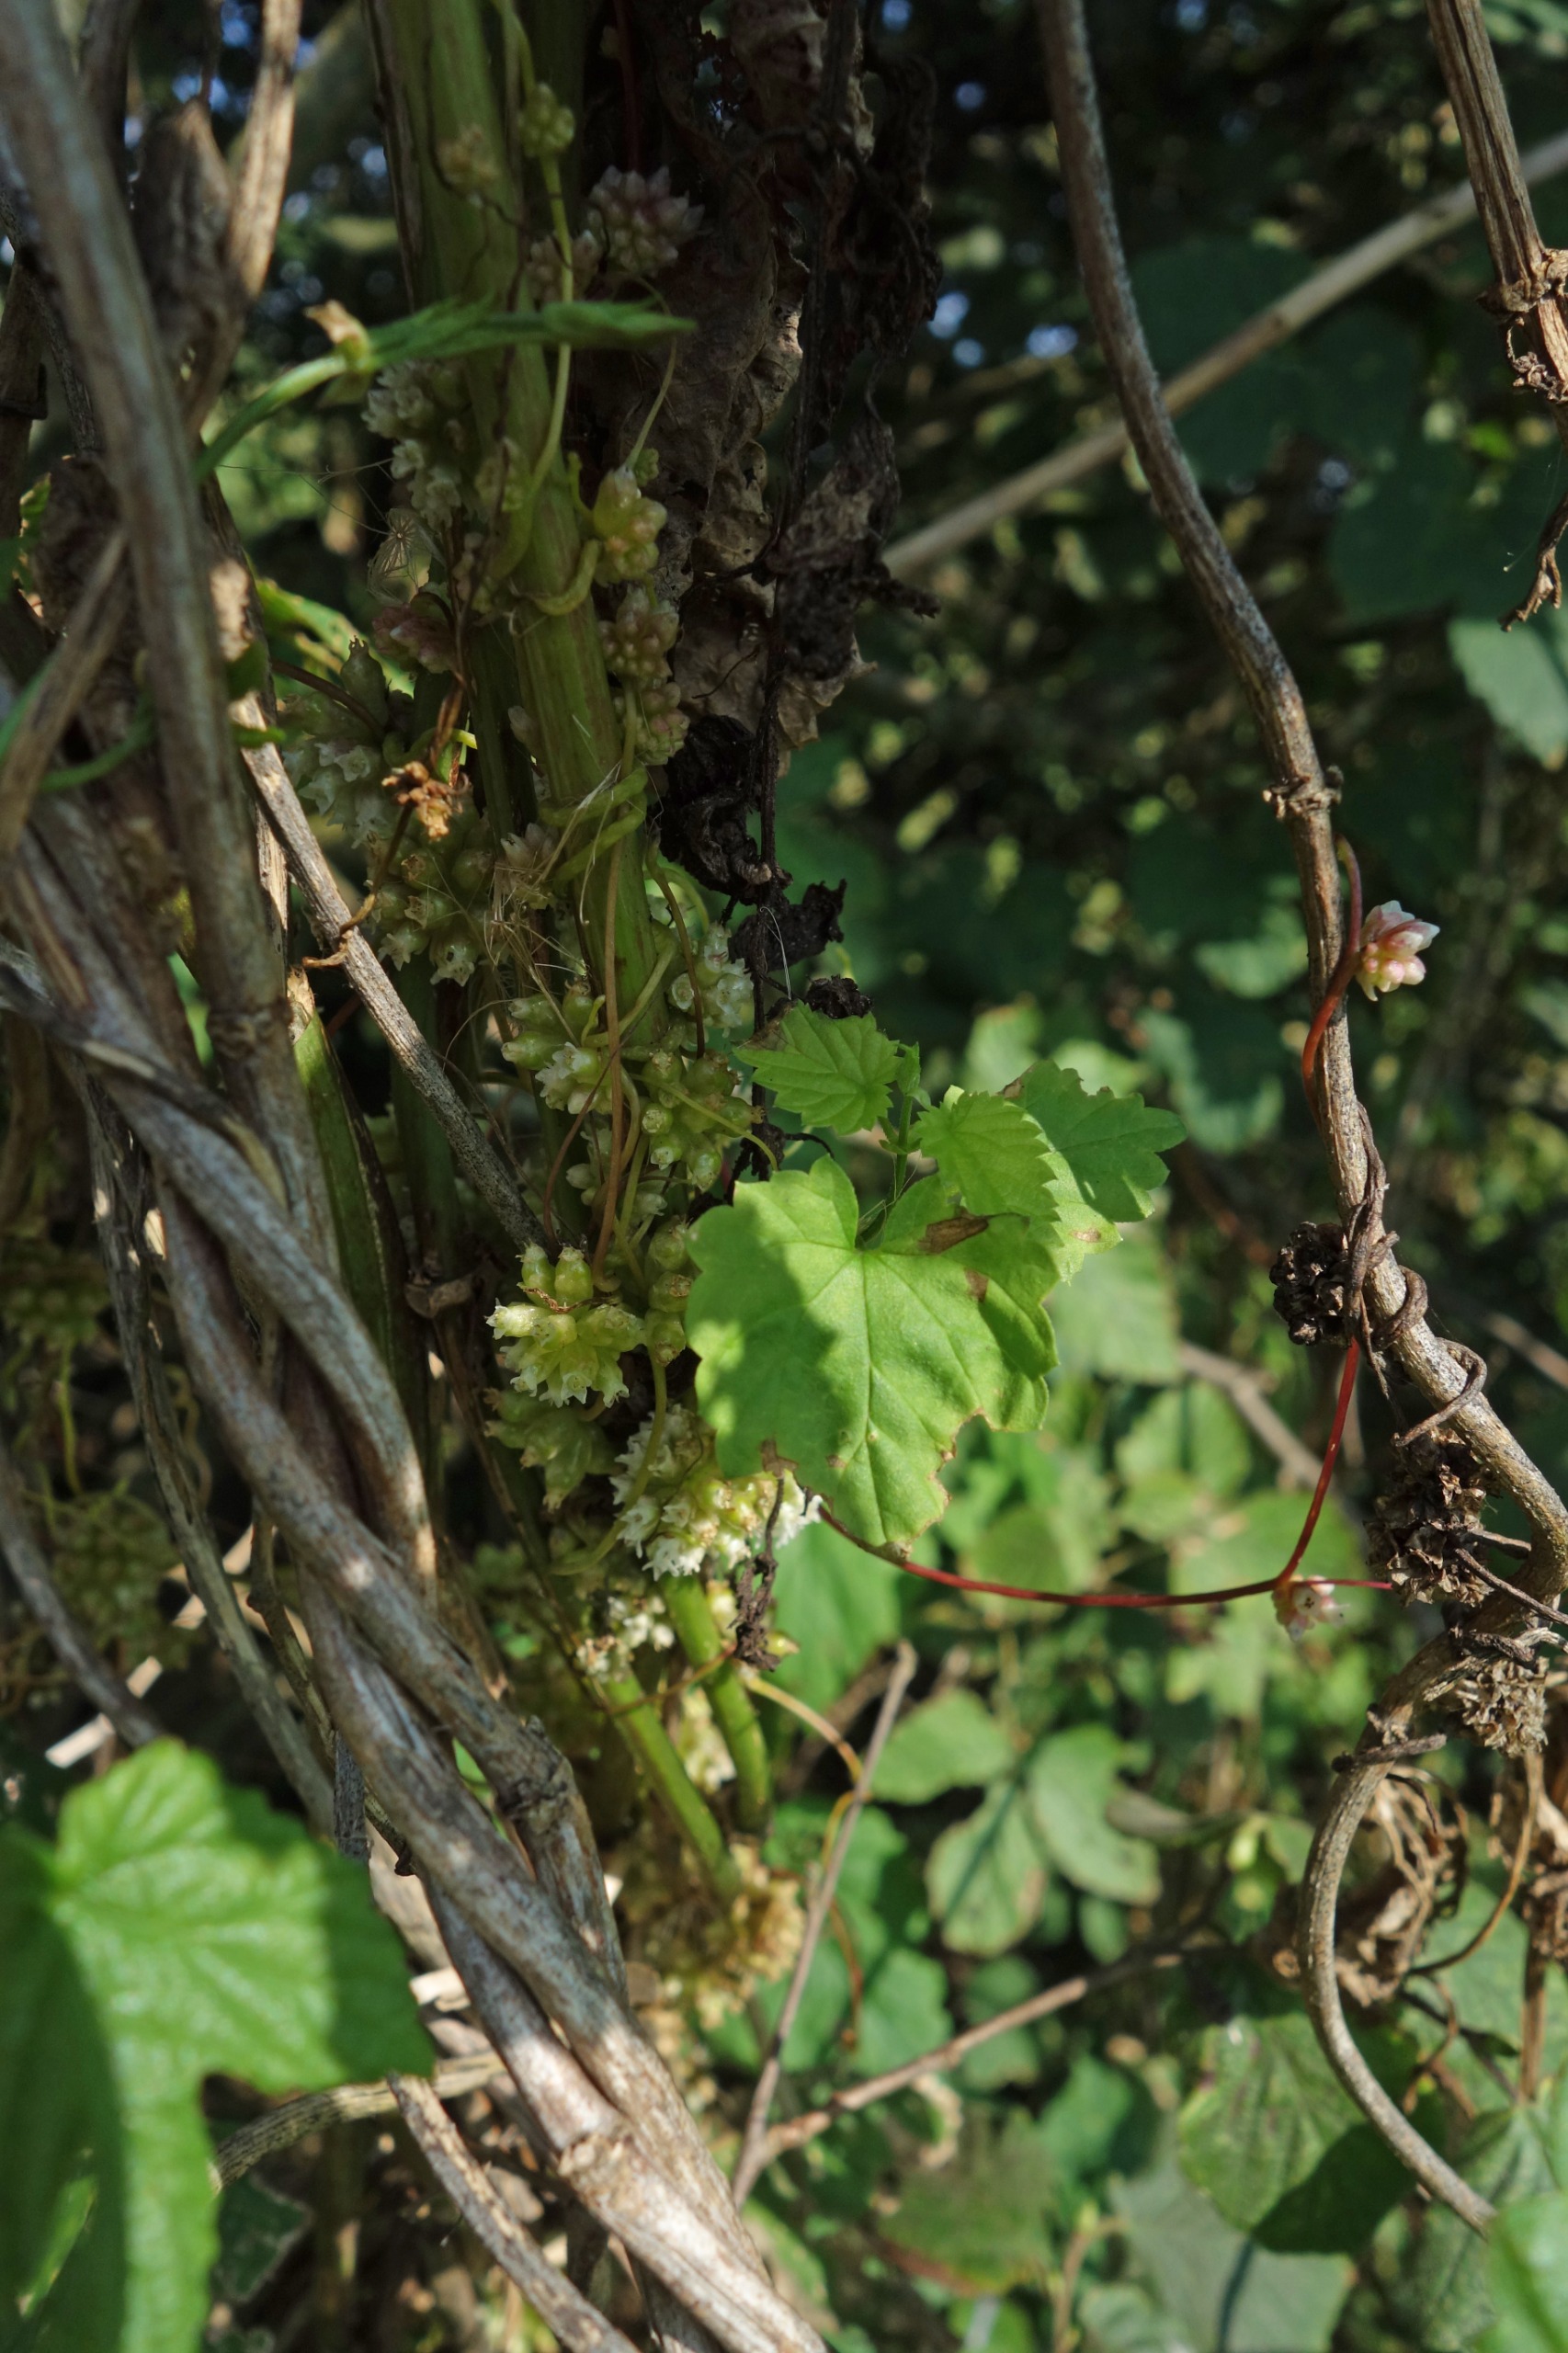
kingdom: Plantae
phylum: Tracheophyta
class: Magnoliopsida
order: Solanales
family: Convolvulaceae
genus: Cuscuta
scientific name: Cuscuta europaea
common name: Nælde-silke
